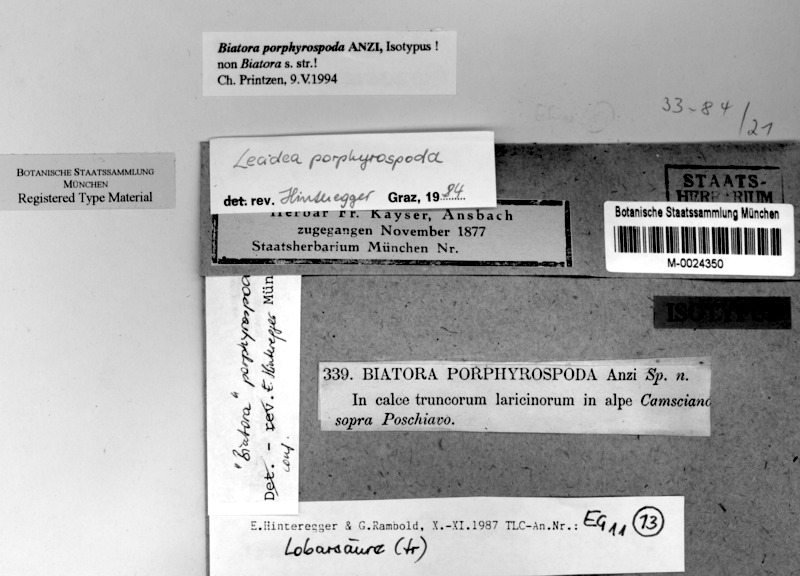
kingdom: Fungi
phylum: Ascomycota
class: Lecanoromycetes
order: Lecanorales
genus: Myochroidea
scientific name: Myochroidea porphyrospoda
